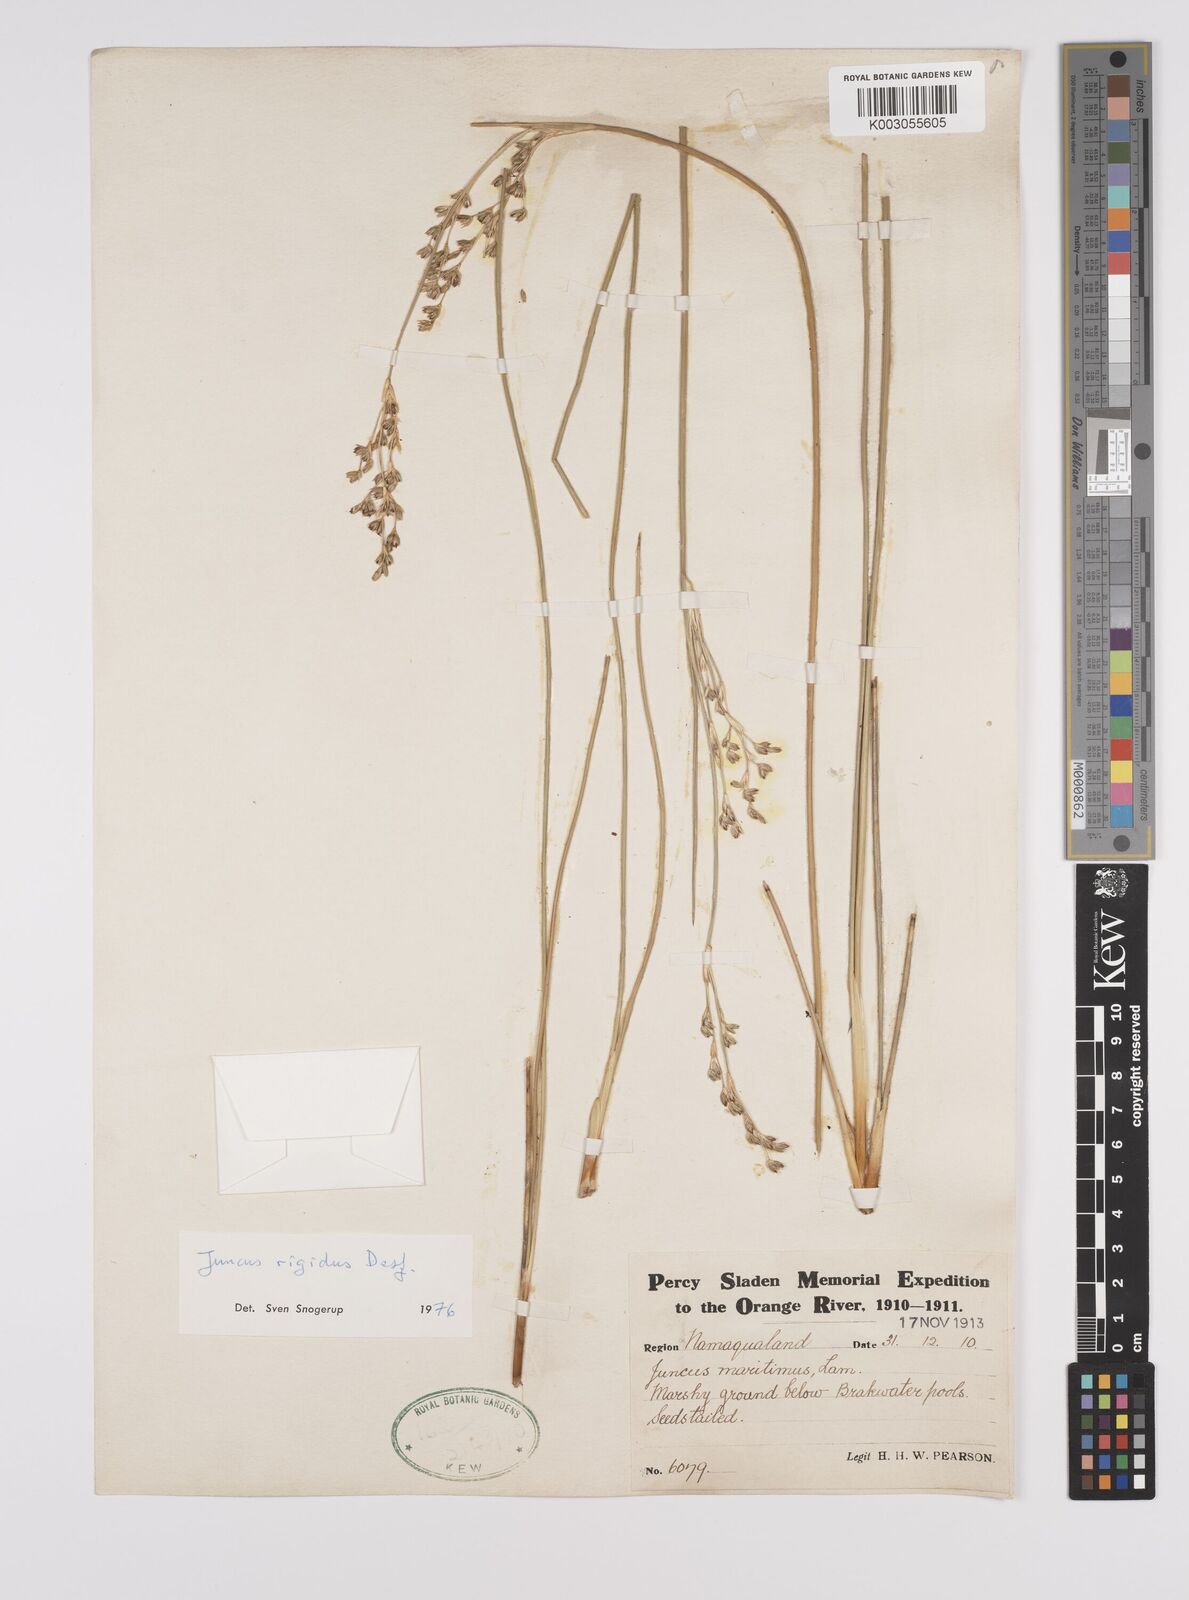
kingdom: Plantae
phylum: Tracheophyta
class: Liliopsida
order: Poales
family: Juncaceae
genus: Juncus
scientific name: Juncus rigidus
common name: Hard sea rush
